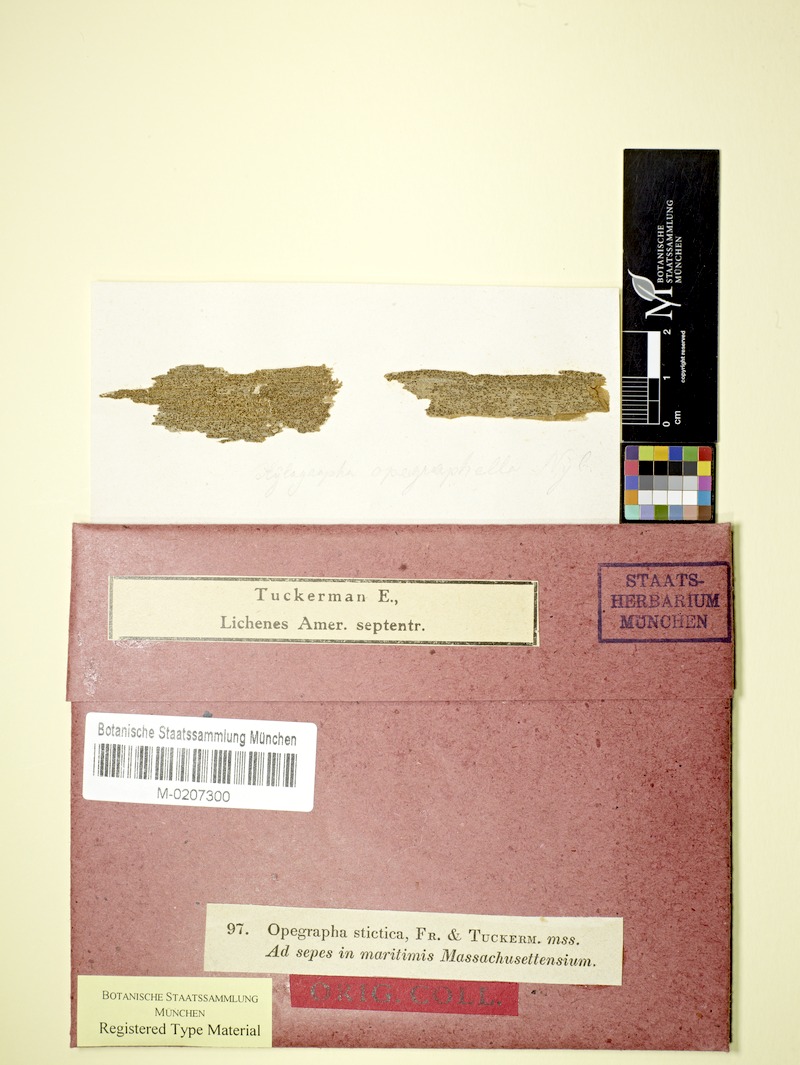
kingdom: Fungi
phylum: Ascomycota
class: Lecanoromycetes
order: Baeomycetales
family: Xylographaceae
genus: Xylographa
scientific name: Xylographa opegraphella
